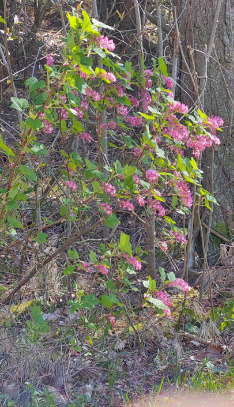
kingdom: Plantae
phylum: Tracheophyta
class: Magnoliopsida
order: Saxifragales
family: Grossulariaceae
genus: Ribes
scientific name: Ribes sanguineum
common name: Blod-ribs
